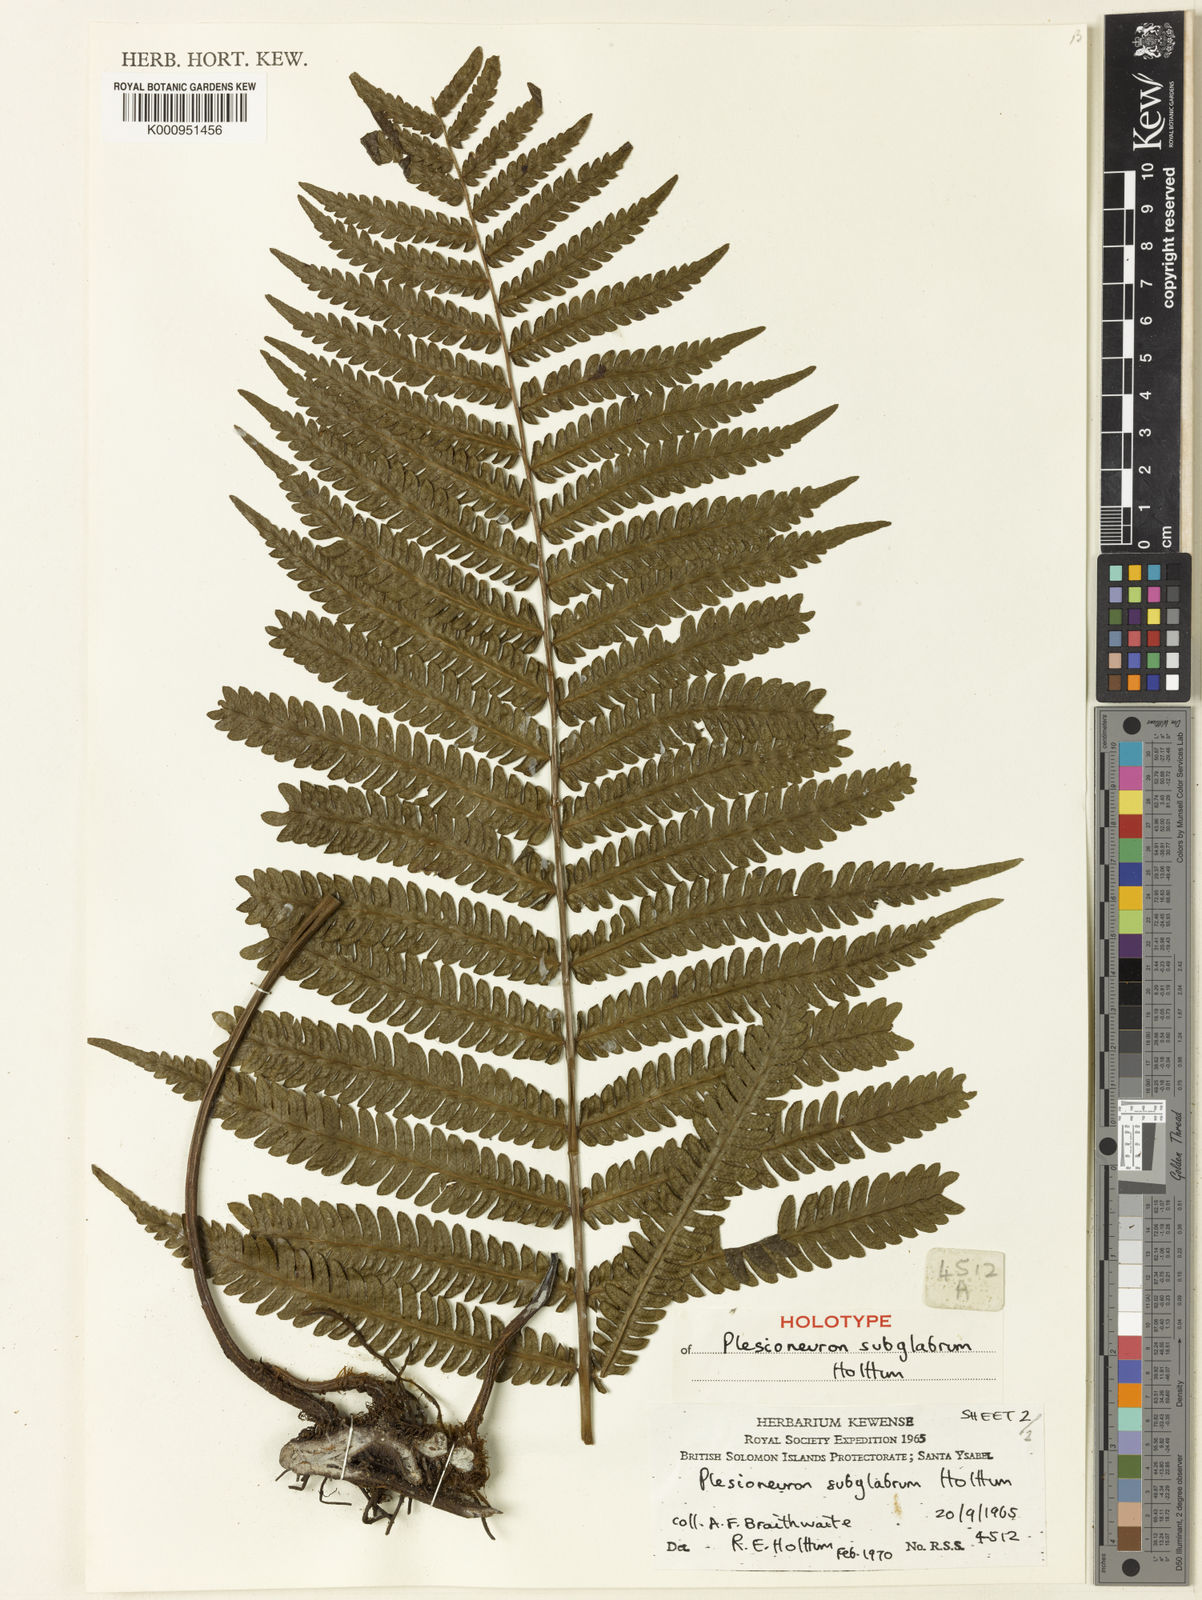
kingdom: Plantae
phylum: Tracheophyta
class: Polypodiopsida
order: Polypodiales
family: Thelypteridaceae
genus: Plesioneuron
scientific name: Plesioneuron subglabrum
